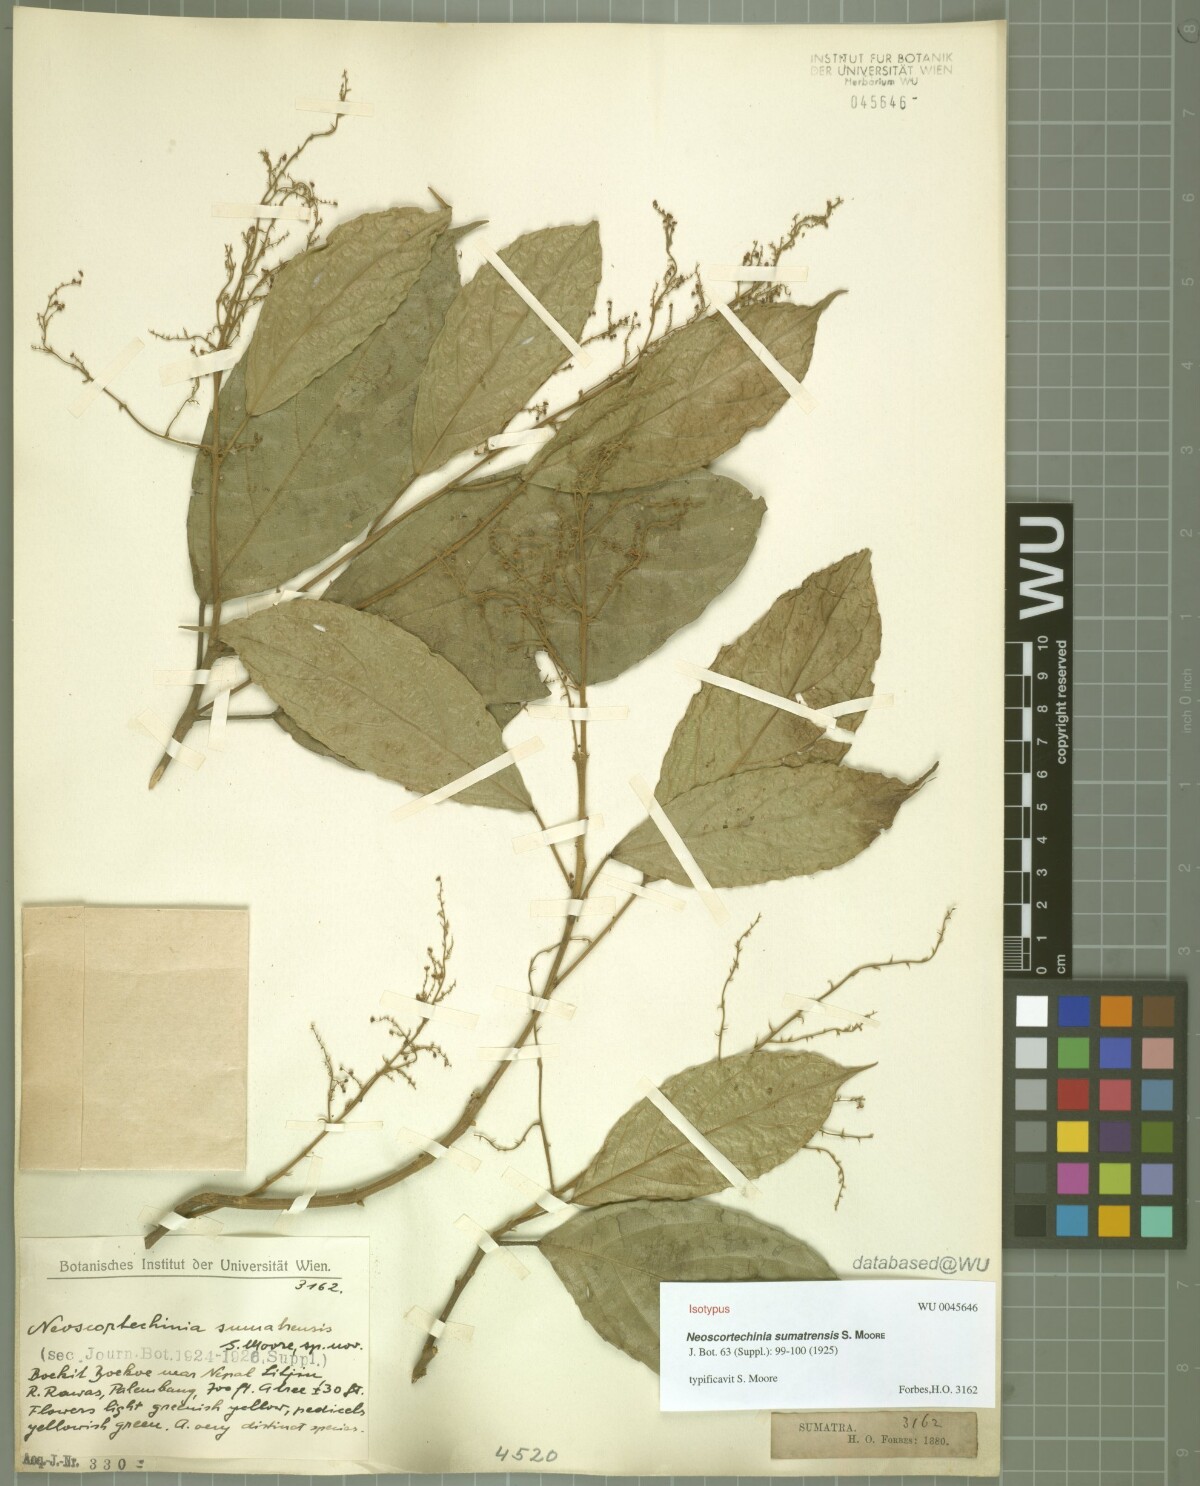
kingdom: Plantae
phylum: Tracheophyta
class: Magnoliopsida
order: Malpighiales
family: Euphorbiaceae
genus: Neoscortechinia
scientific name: Neoscortechinia sumatrensis
